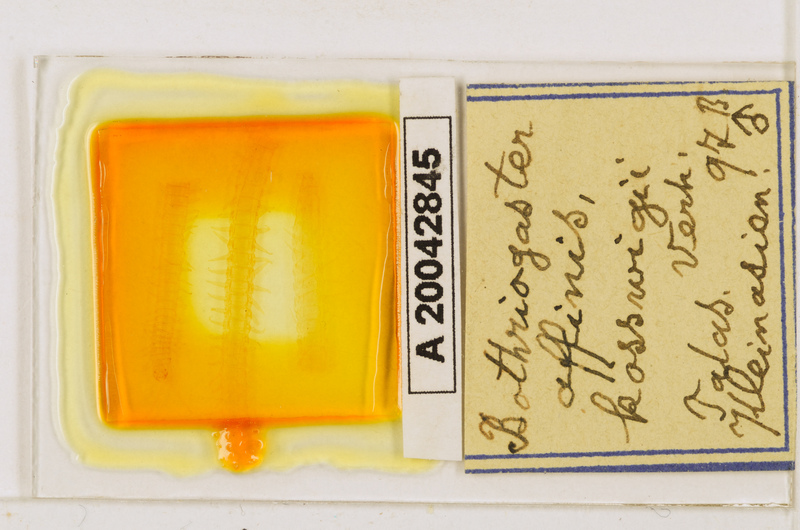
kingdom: Animalia
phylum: Arthropoda
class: Chilopoda
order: Geophilomorpha
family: Himantariidae
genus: Bothriogaster
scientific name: Bothriogaster signata
